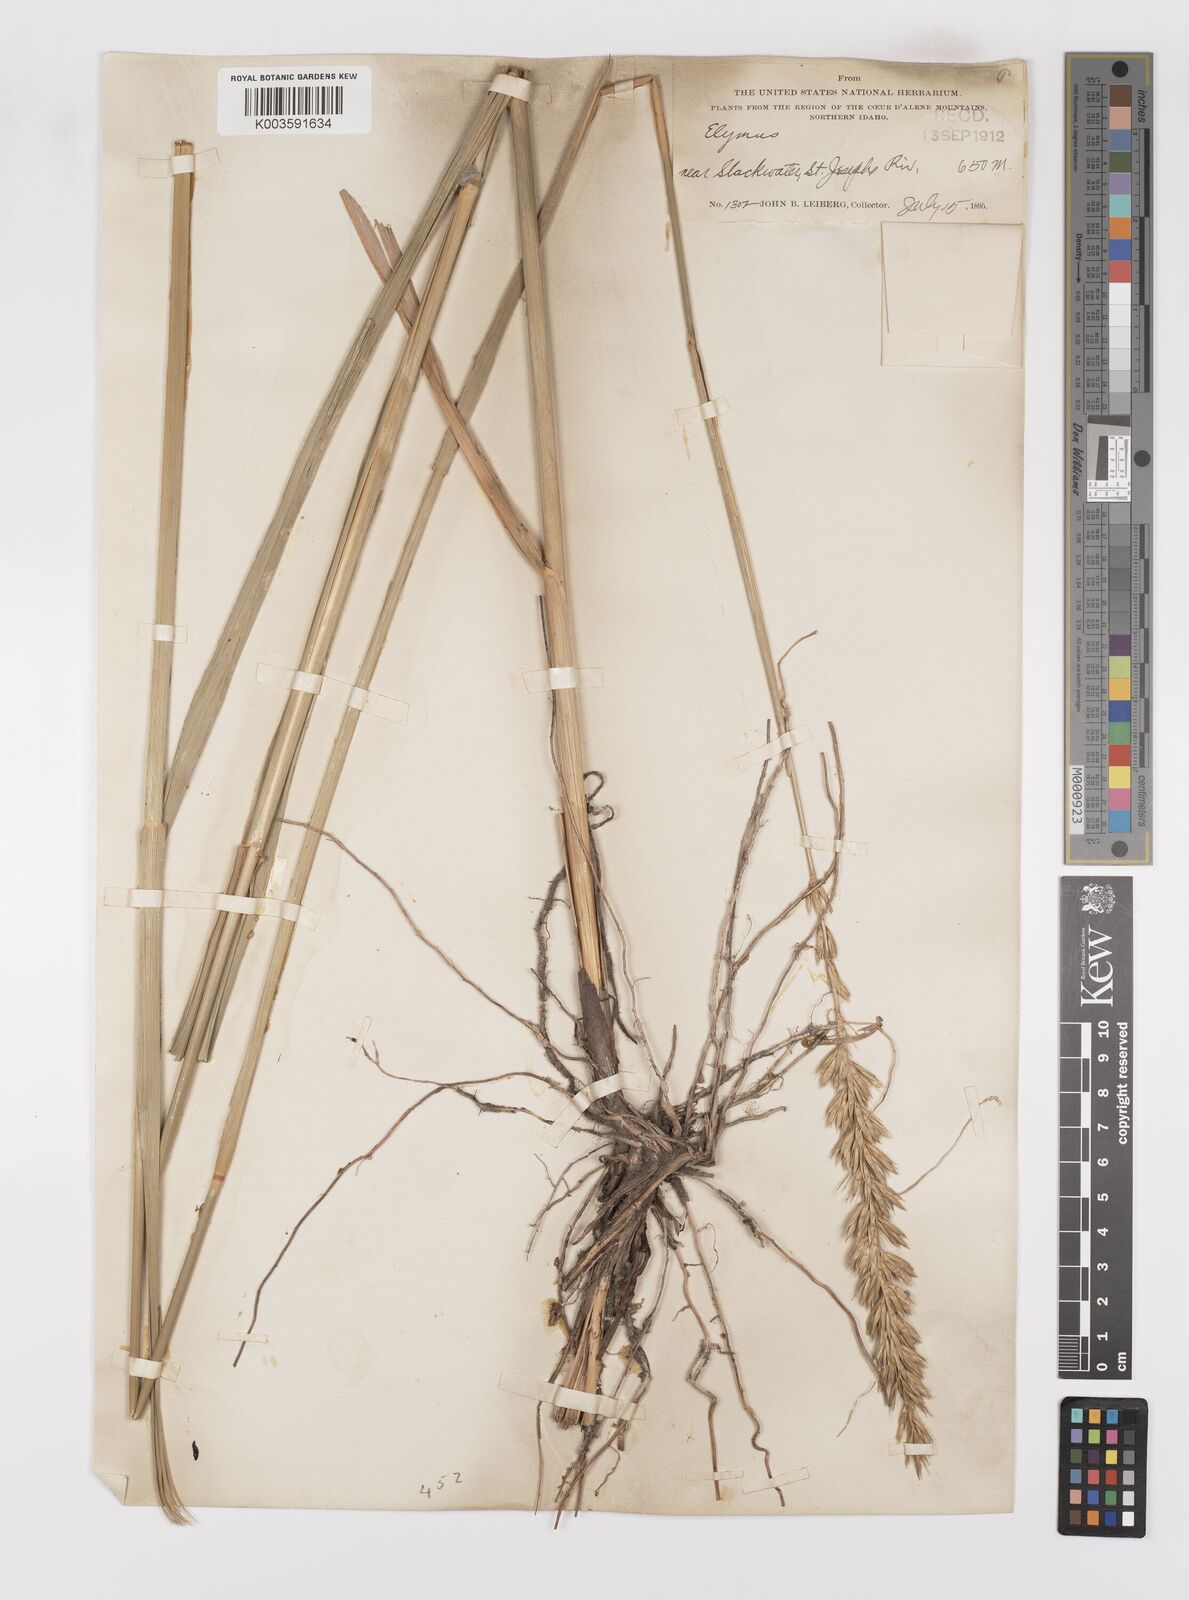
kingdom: Plantae
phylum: Tracheophyta
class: Liliopsida
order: Poales
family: Poaceae
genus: Leymus
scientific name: Leymus
